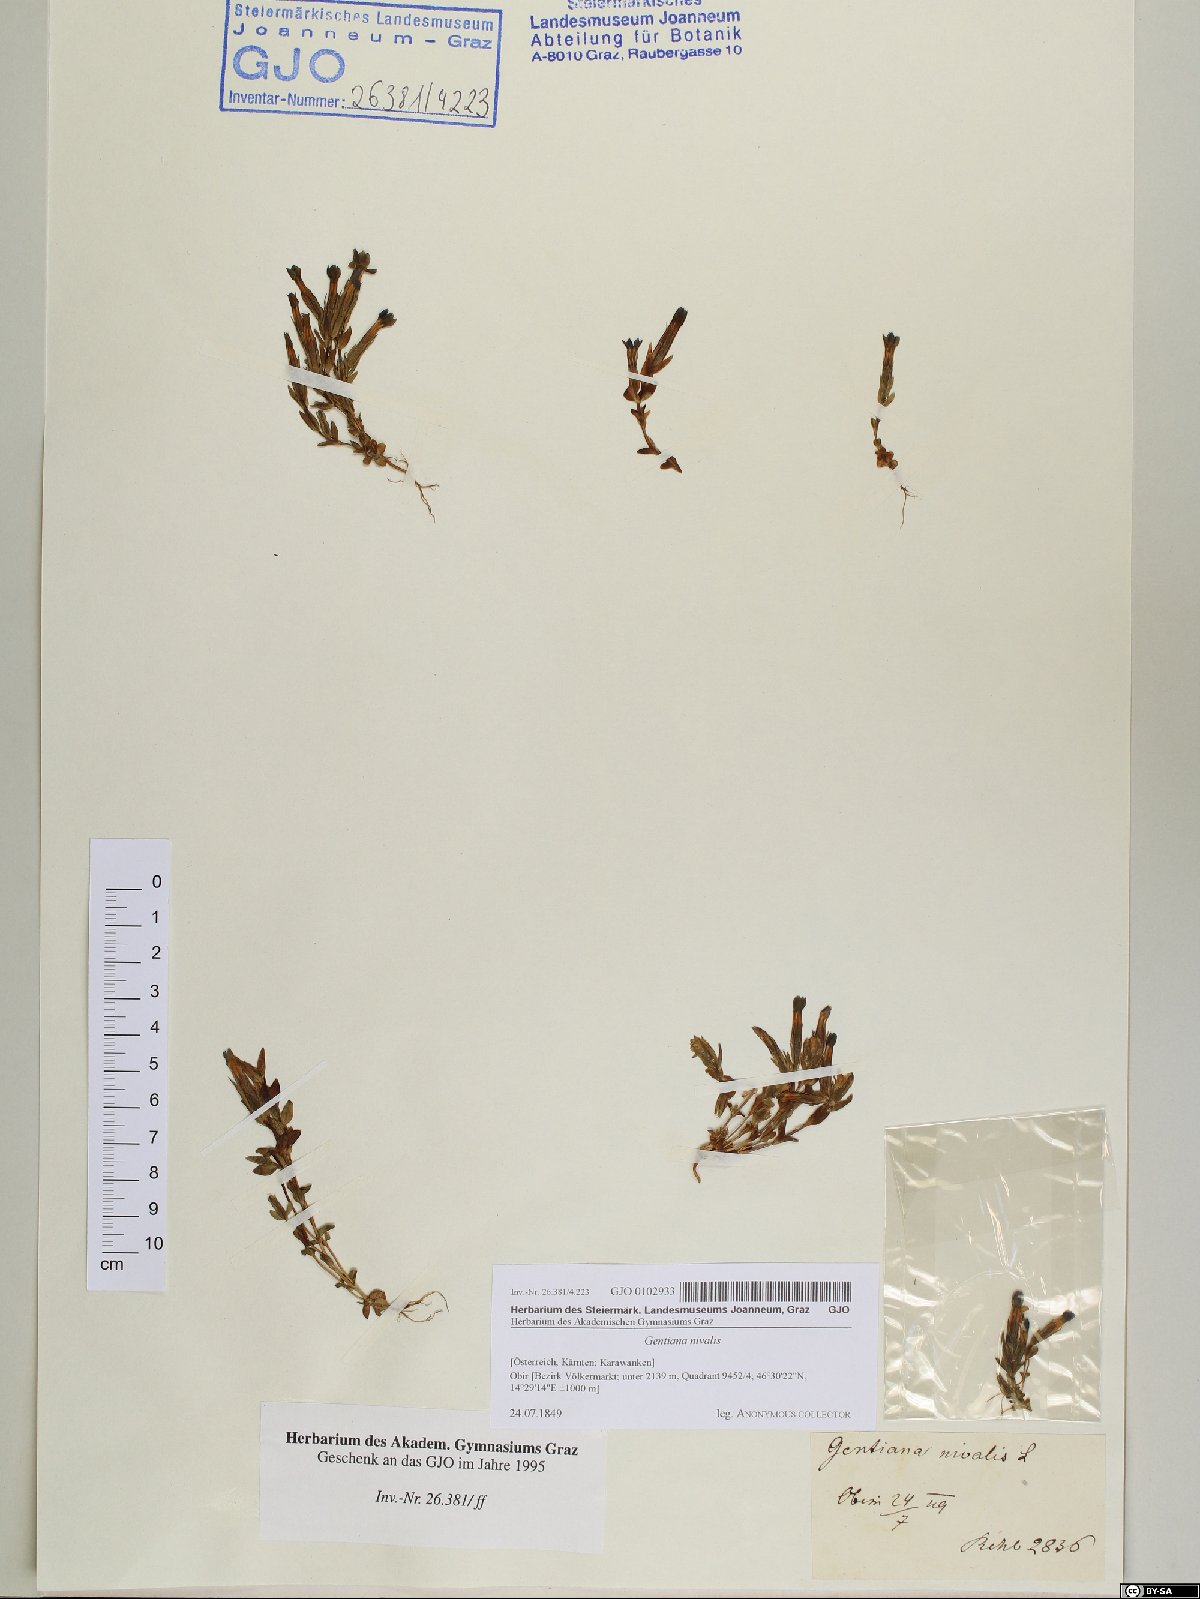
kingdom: Plantae
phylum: Tracheophyta
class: Magnoliopsida
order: Gentianales
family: Gentianaceae
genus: Gentiana
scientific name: Gentiana nivalis
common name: Alpine gentian
